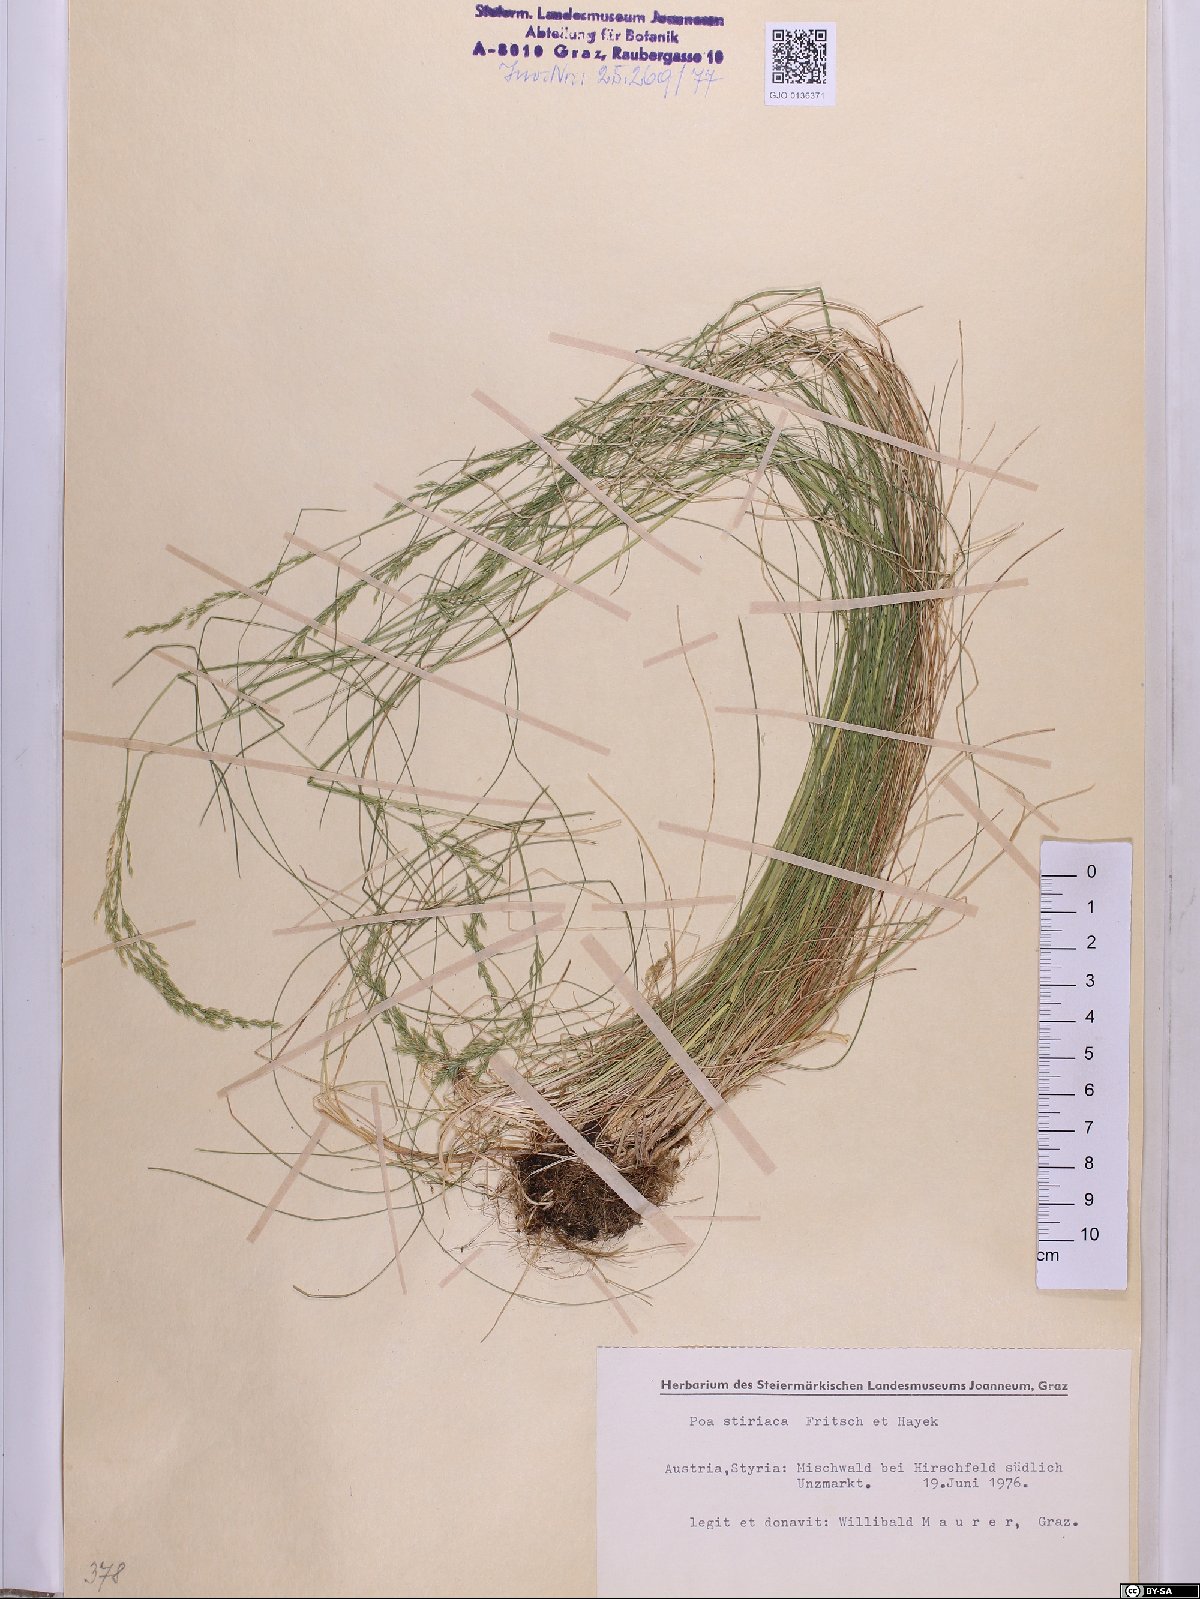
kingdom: Plantae
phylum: Tracheophyta
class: Liliopsida
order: Poales
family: Poaceae
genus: Poa
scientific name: Poa stiriaca
